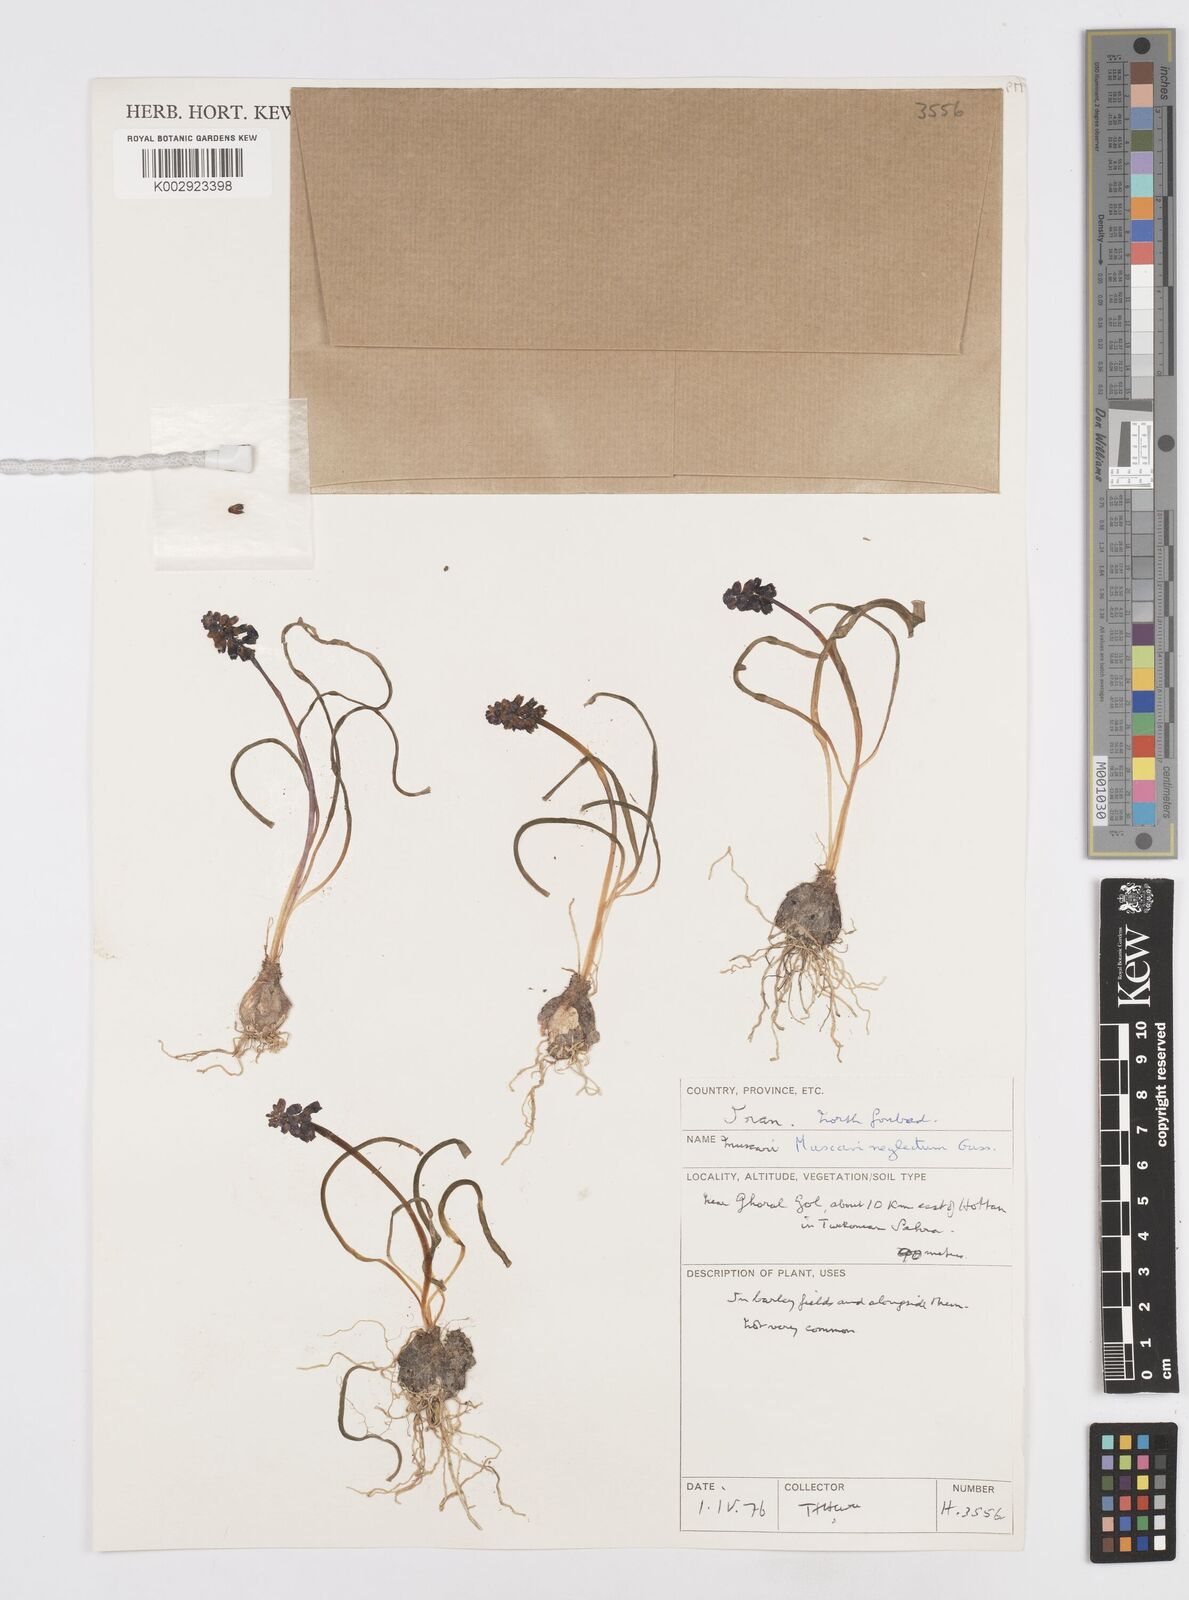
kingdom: Plantae
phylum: Tracheophyta
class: Liliopsida
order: Asparagales
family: Asparagaceae
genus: Muscari
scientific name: Muscari neglectum
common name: Grape-hyacinth
